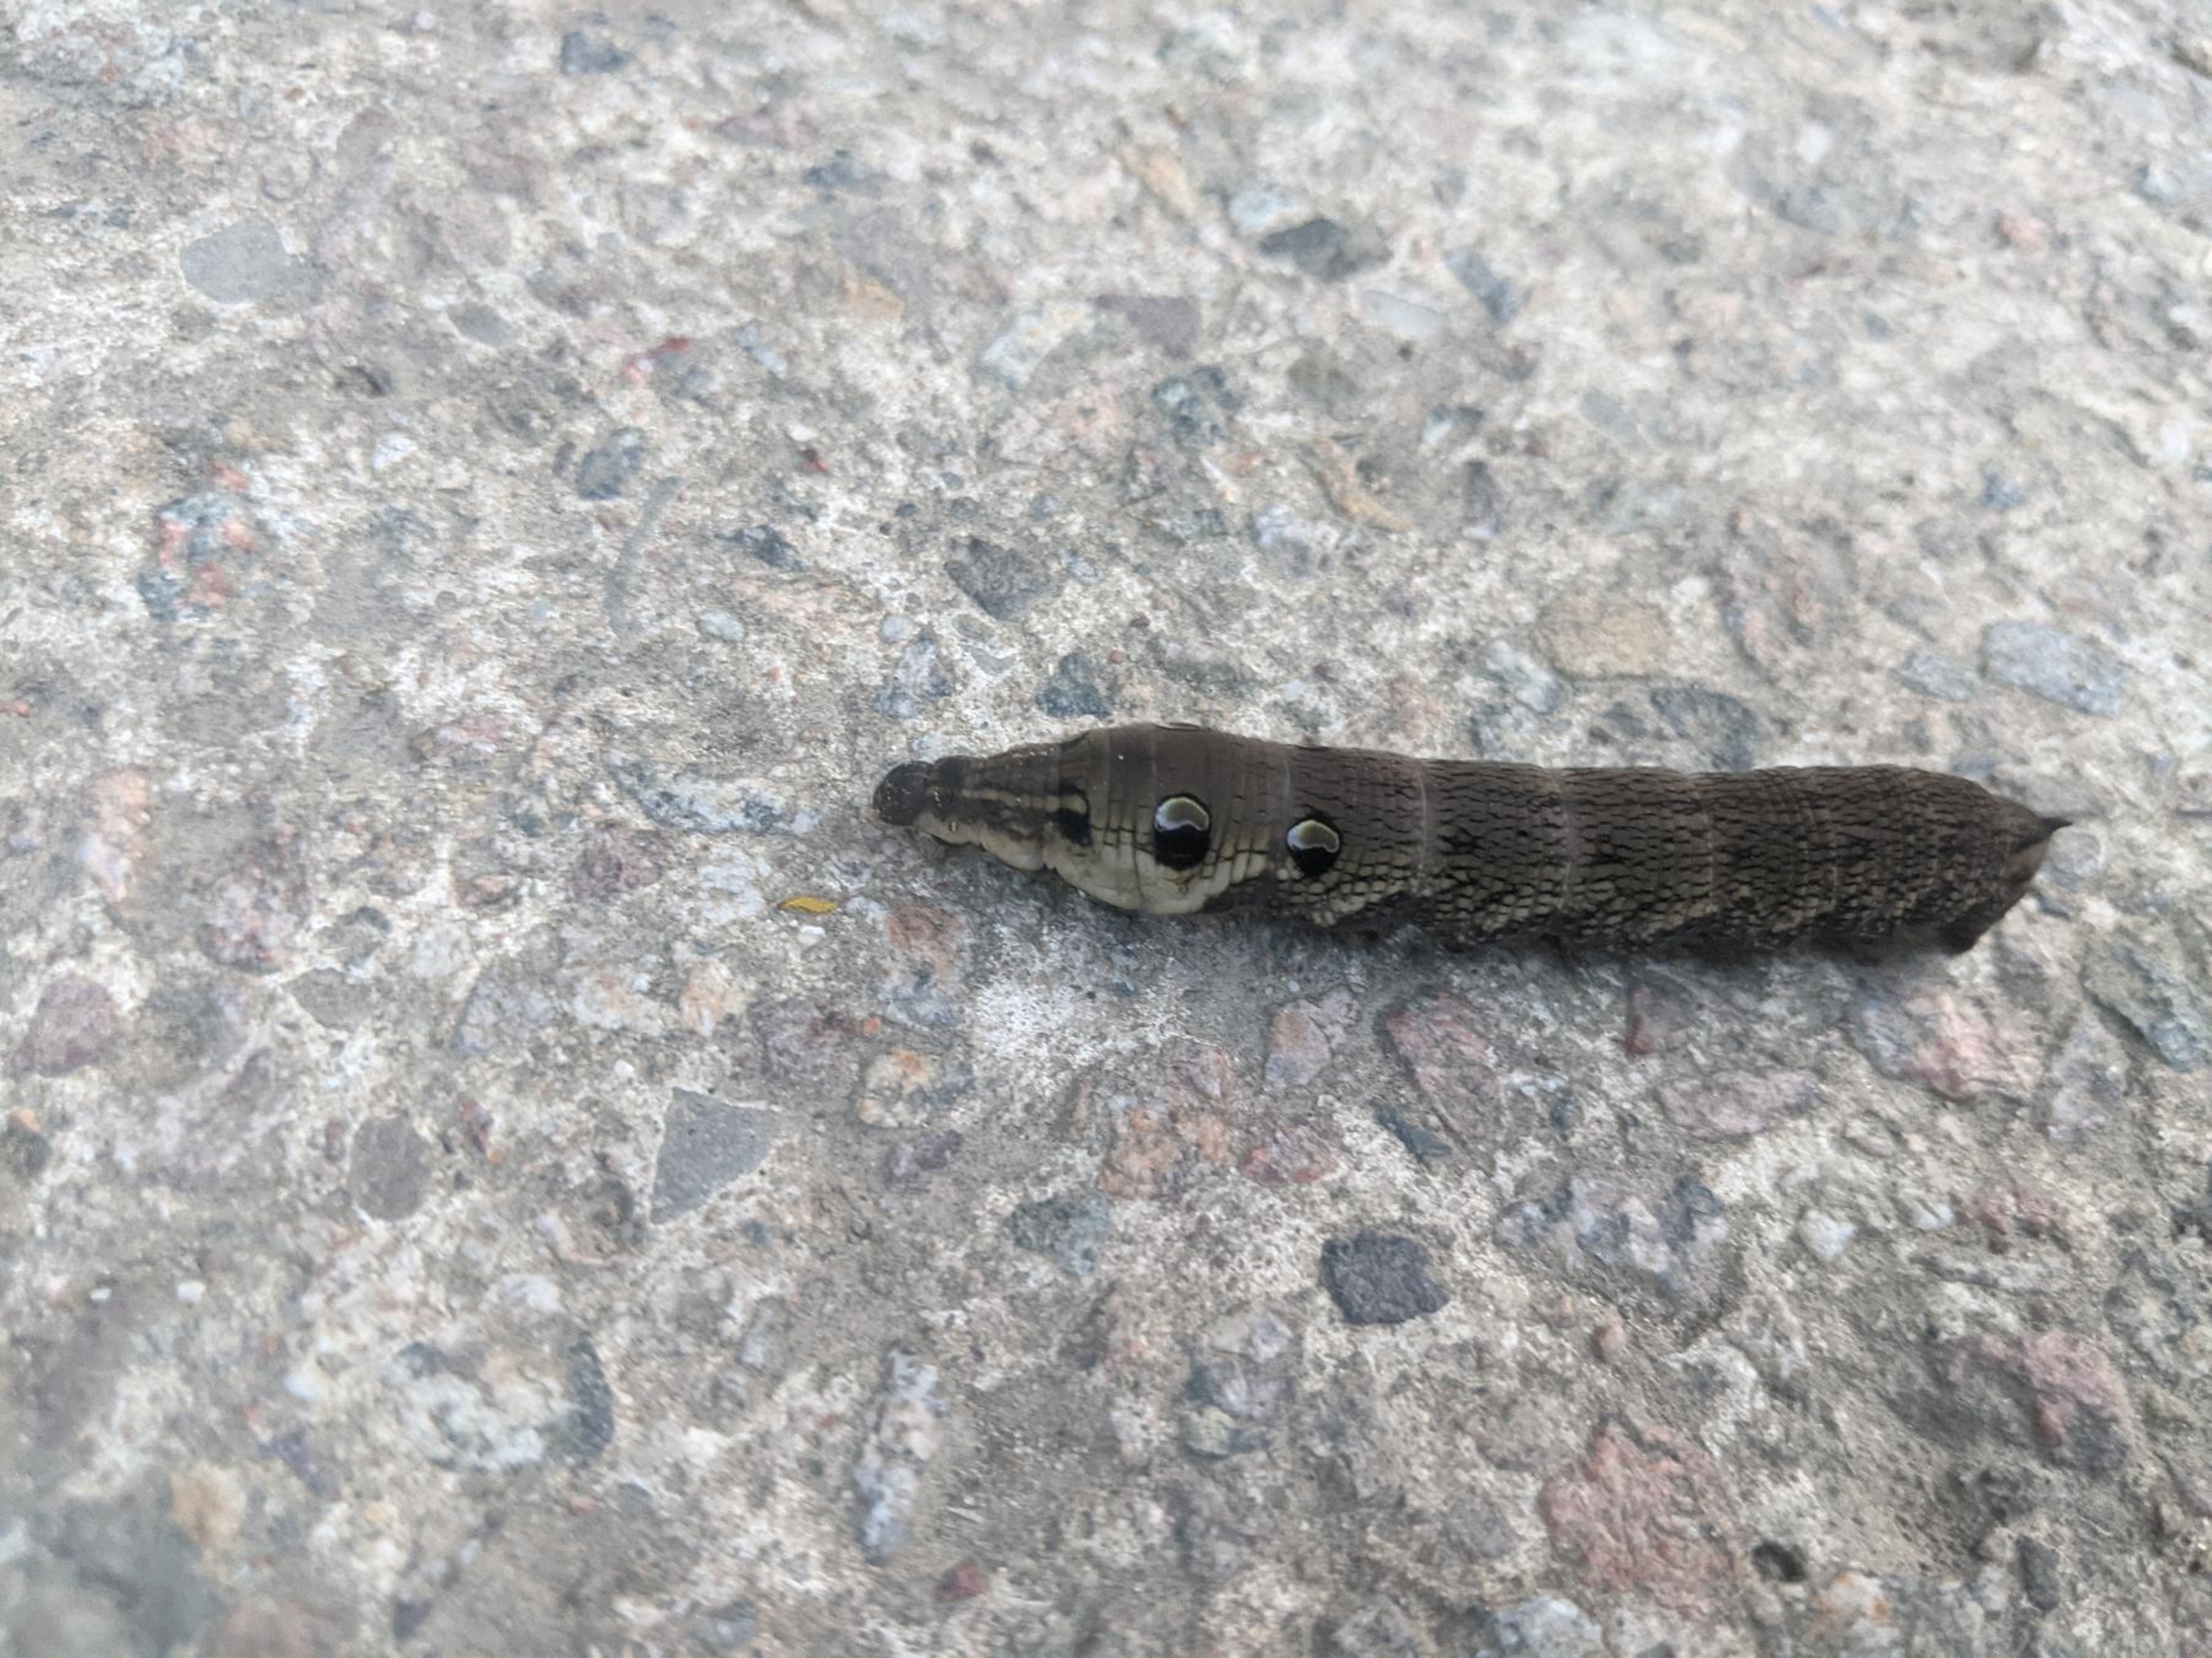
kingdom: Animalia
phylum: Arthropoda
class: Insecta
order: Lepidoptera
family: Sphingidae
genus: Deilephila
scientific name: Deilephila elpenor
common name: Dueurtsværmer
